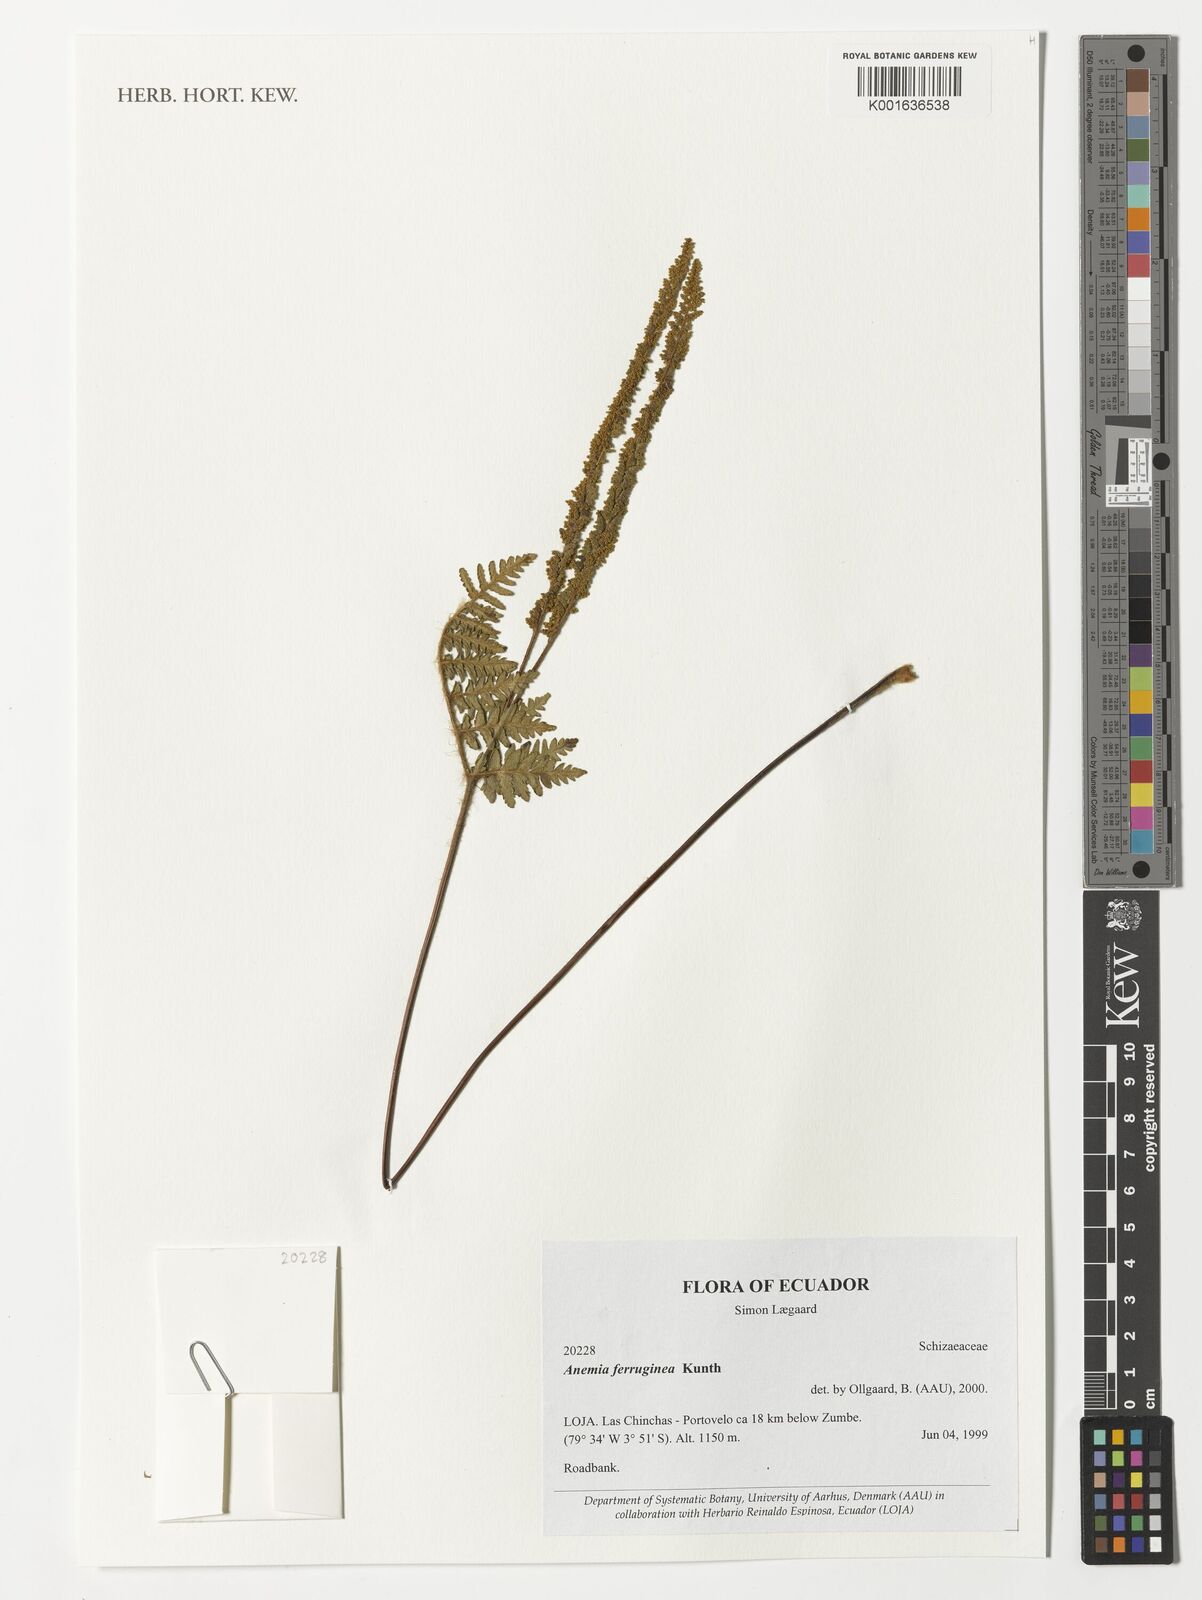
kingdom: Plantae
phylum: Tracheophyta
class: Polypodiopsida
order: Schizaeales
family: Anemiaceae
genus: Anemia
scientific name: Anemia ferruginea
